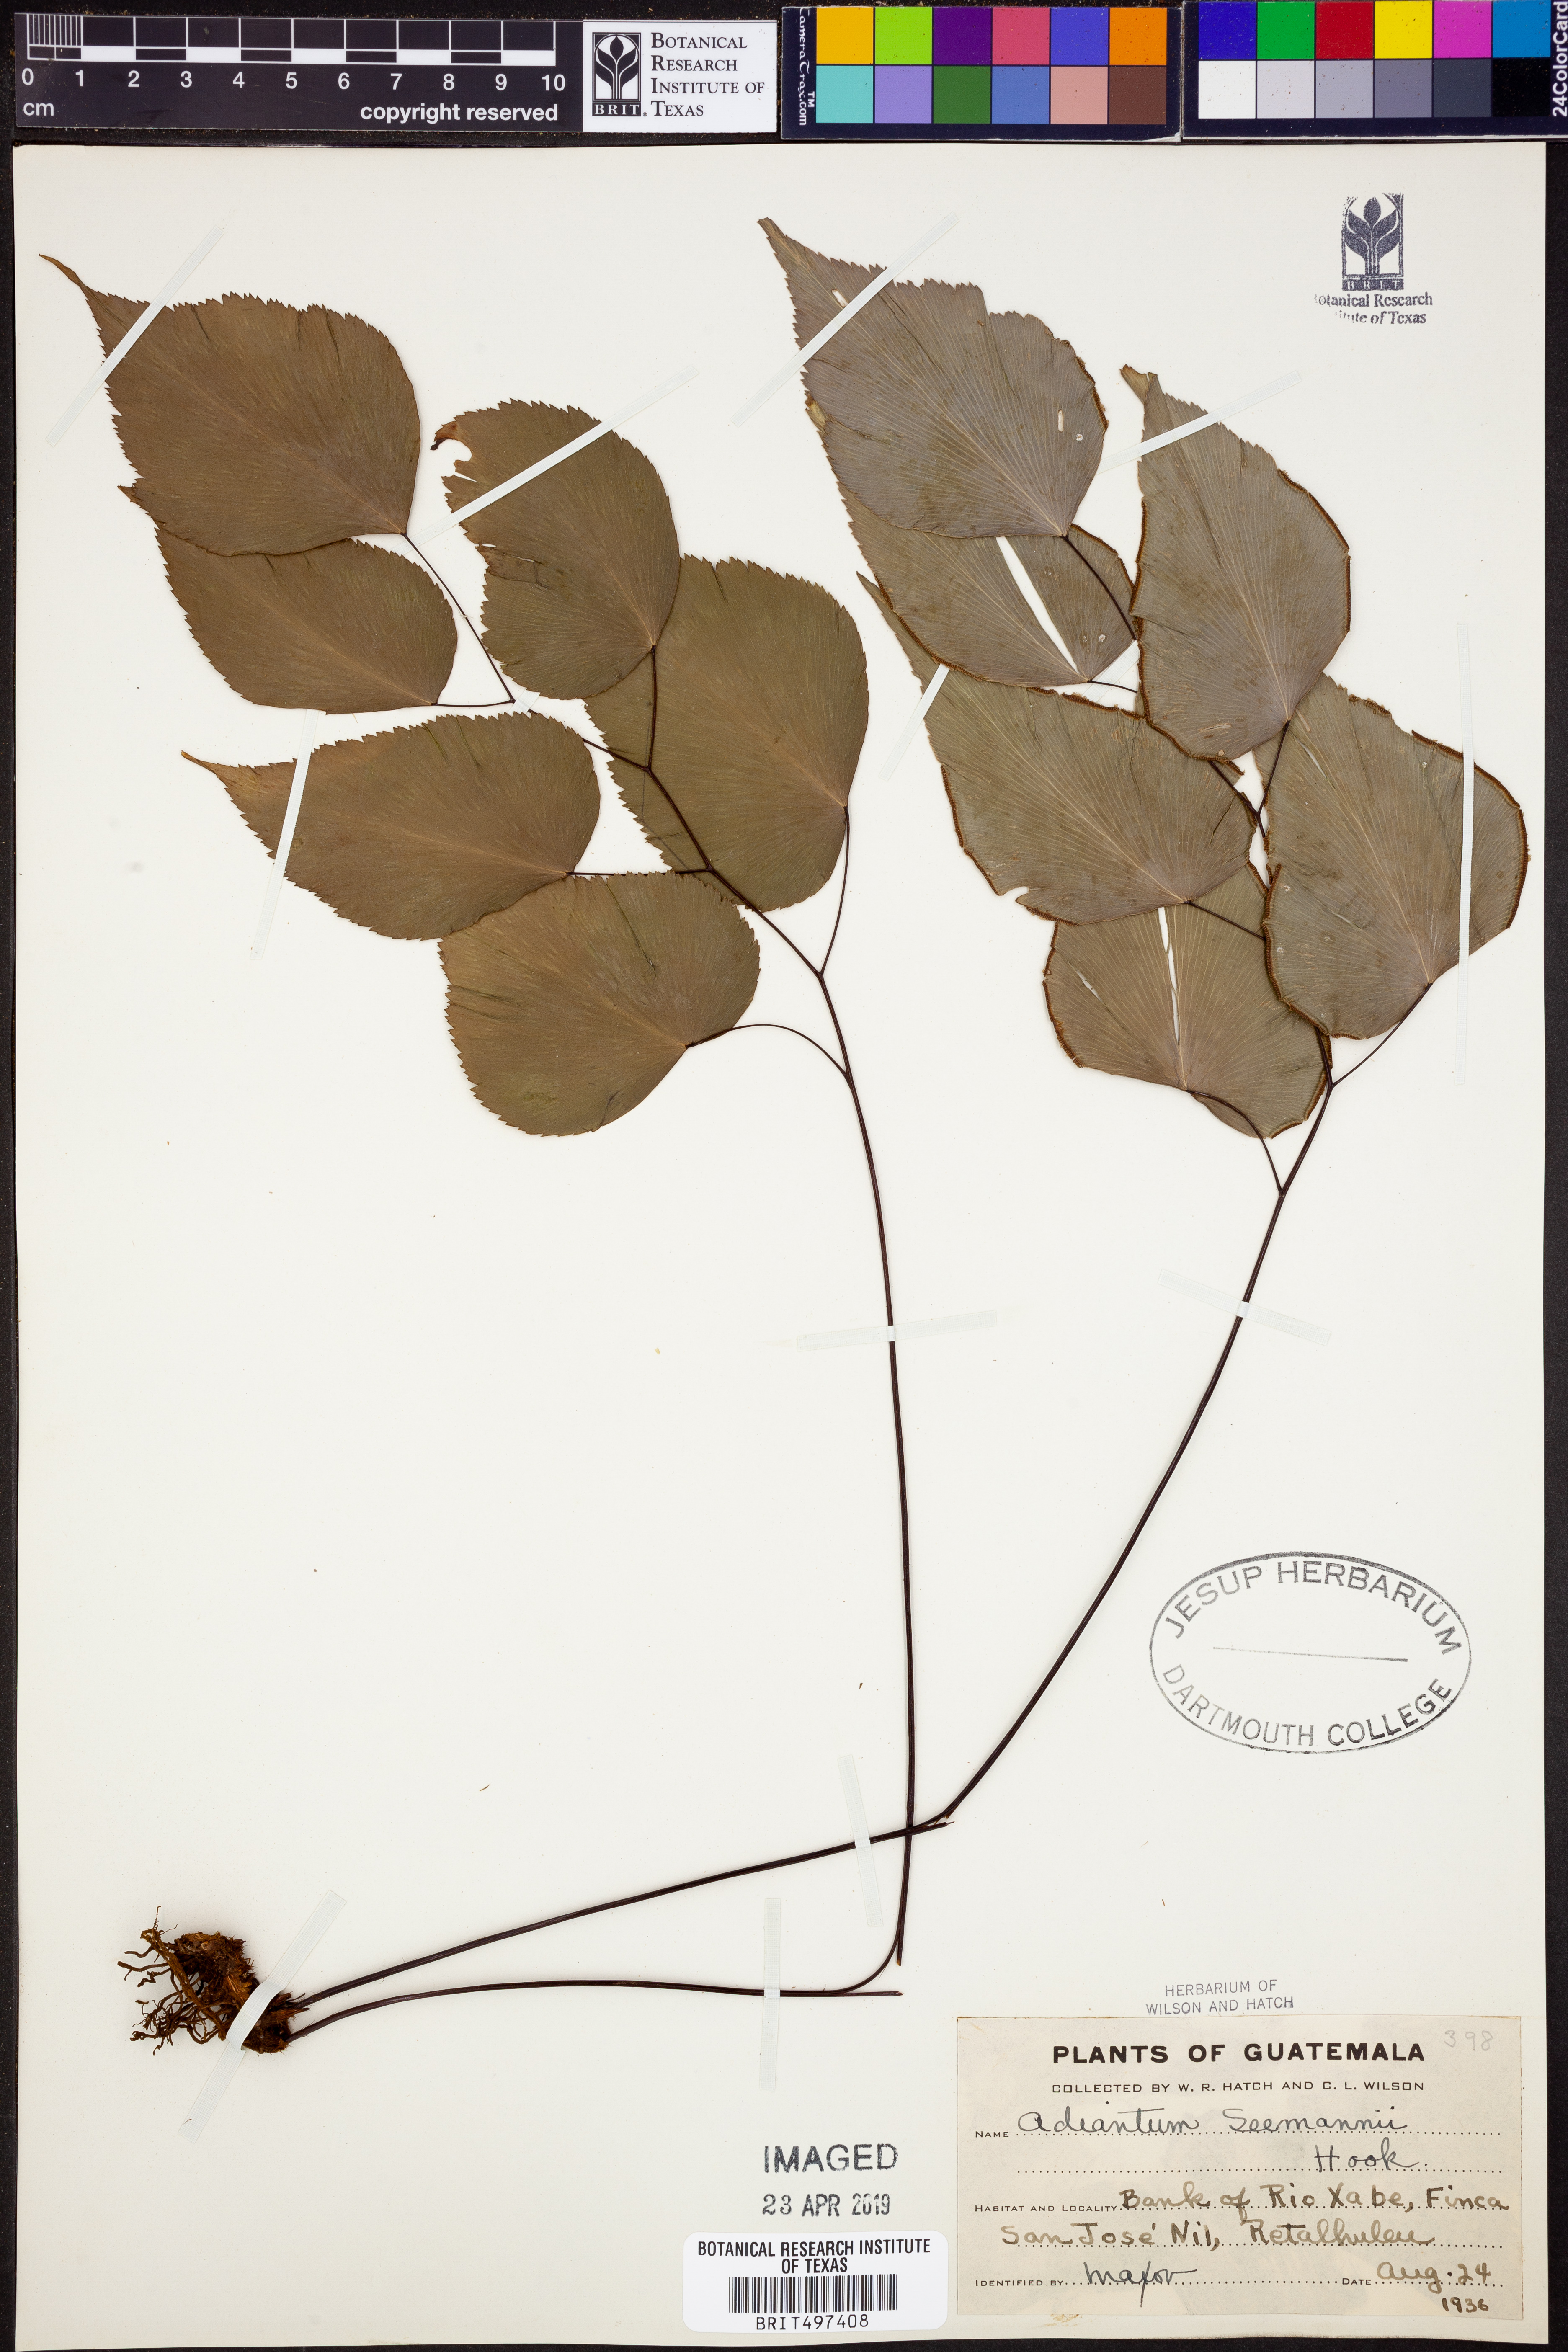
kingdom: Plantae
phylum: Tracheophyta
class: Polypodiopsida
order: Polypodiales
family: Pteridaceae
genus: Adiantum
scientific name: Adiantum seemannii
